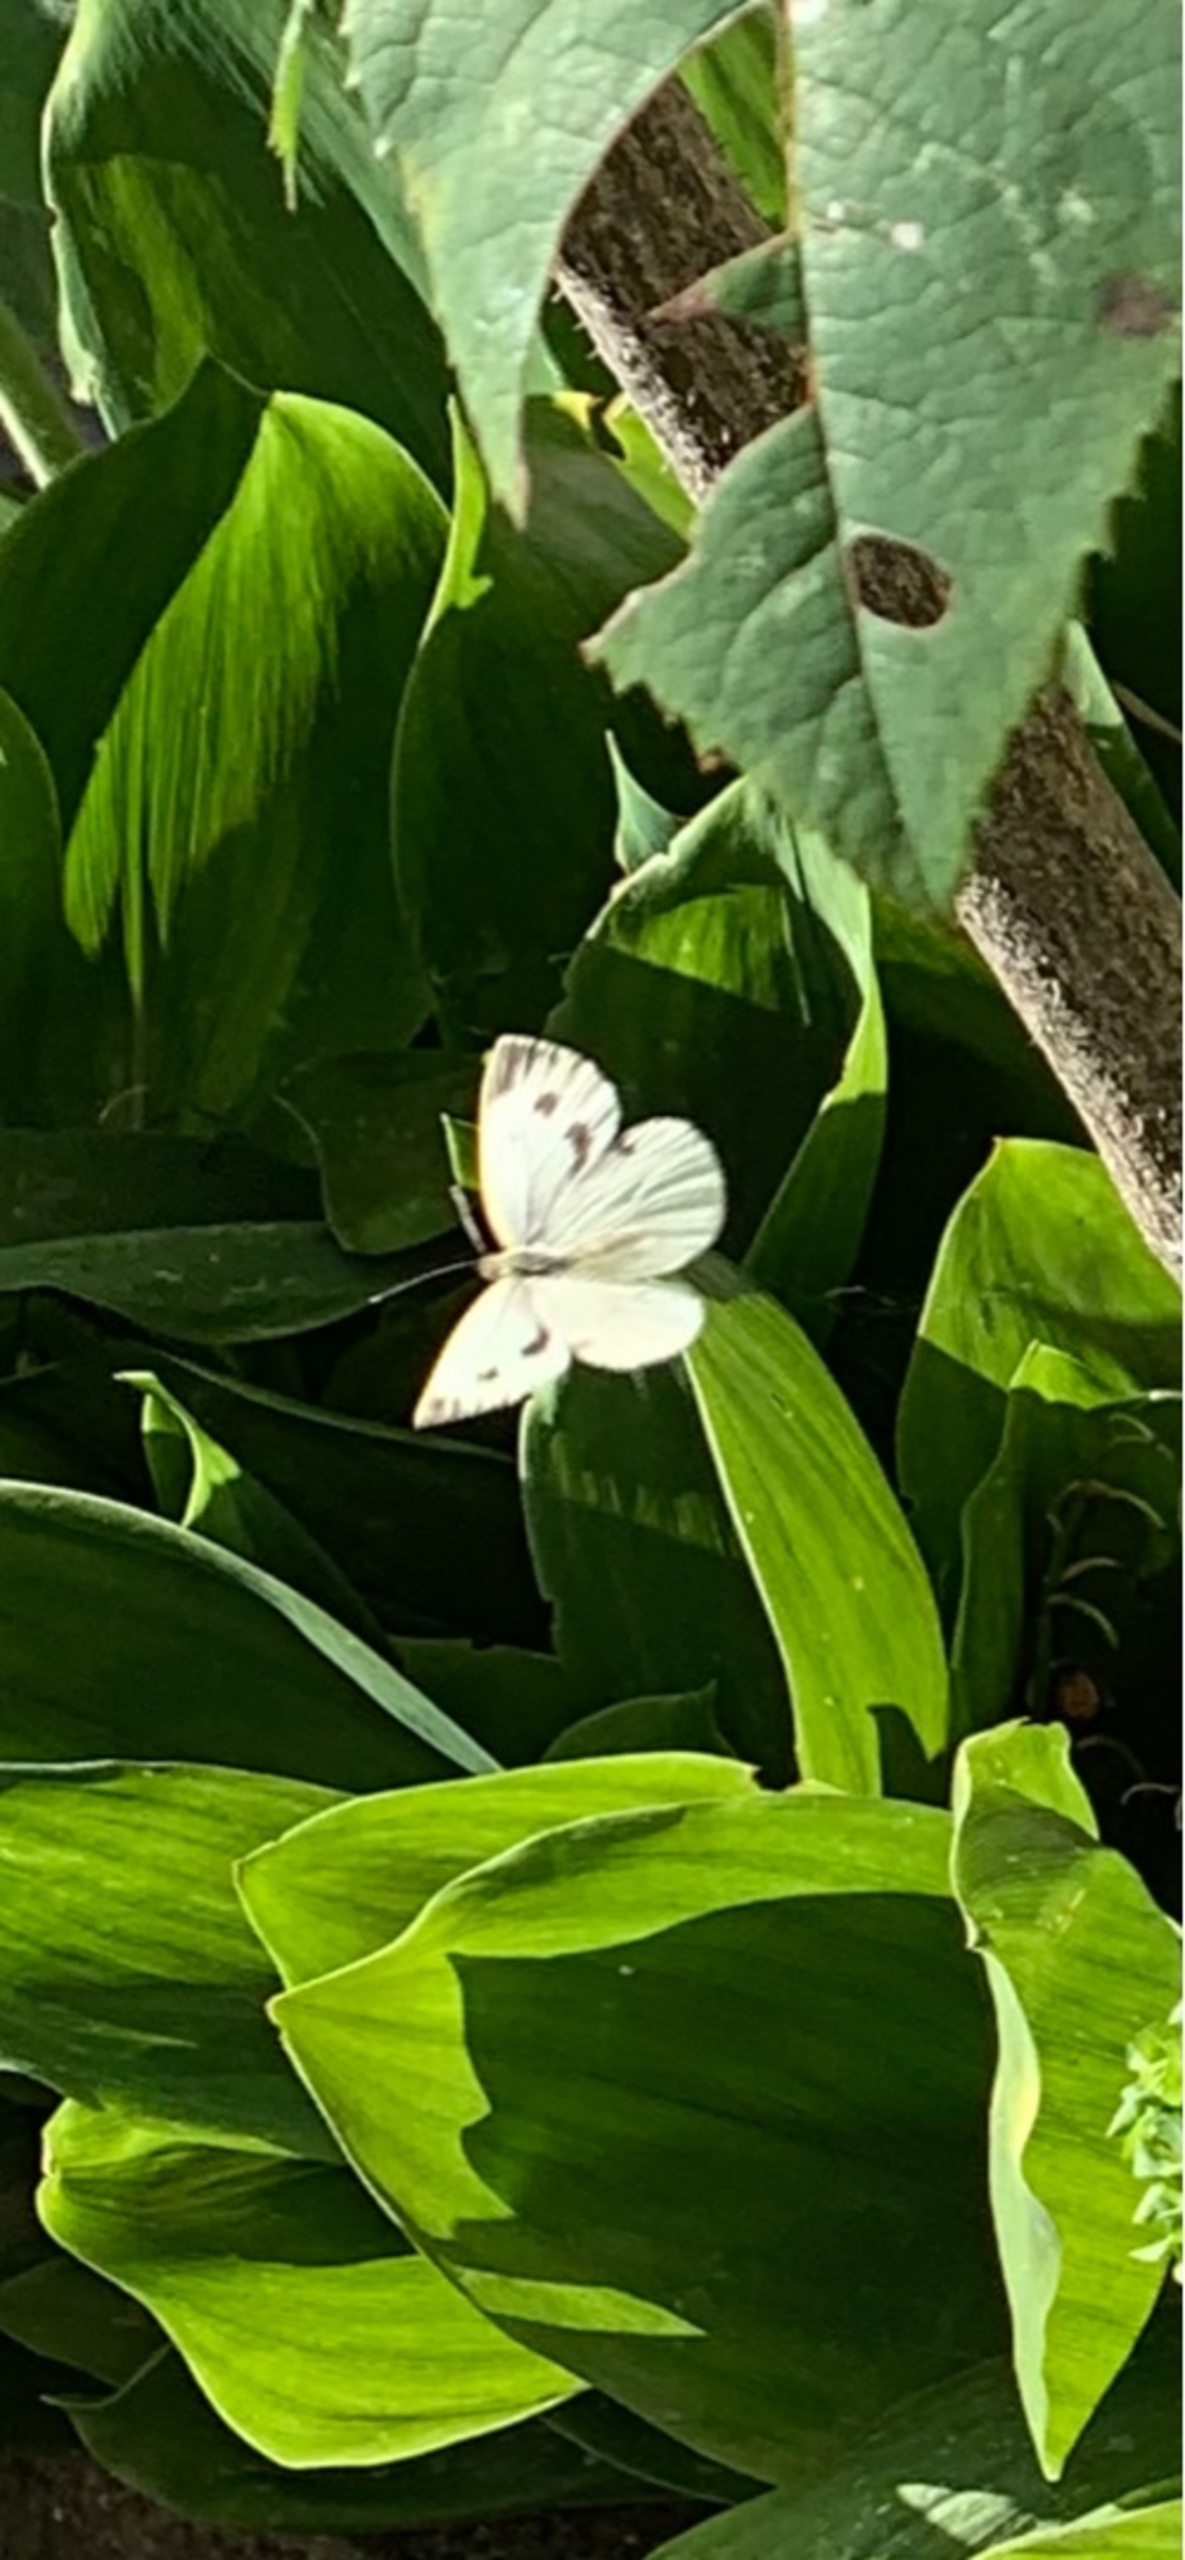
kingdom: Animalia
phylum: Arthropoda
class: Insecta
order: Lepidoptera
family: Pieridae
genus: Pieris
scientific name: Pieris napi
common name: Grønåret kålsommerfugl
